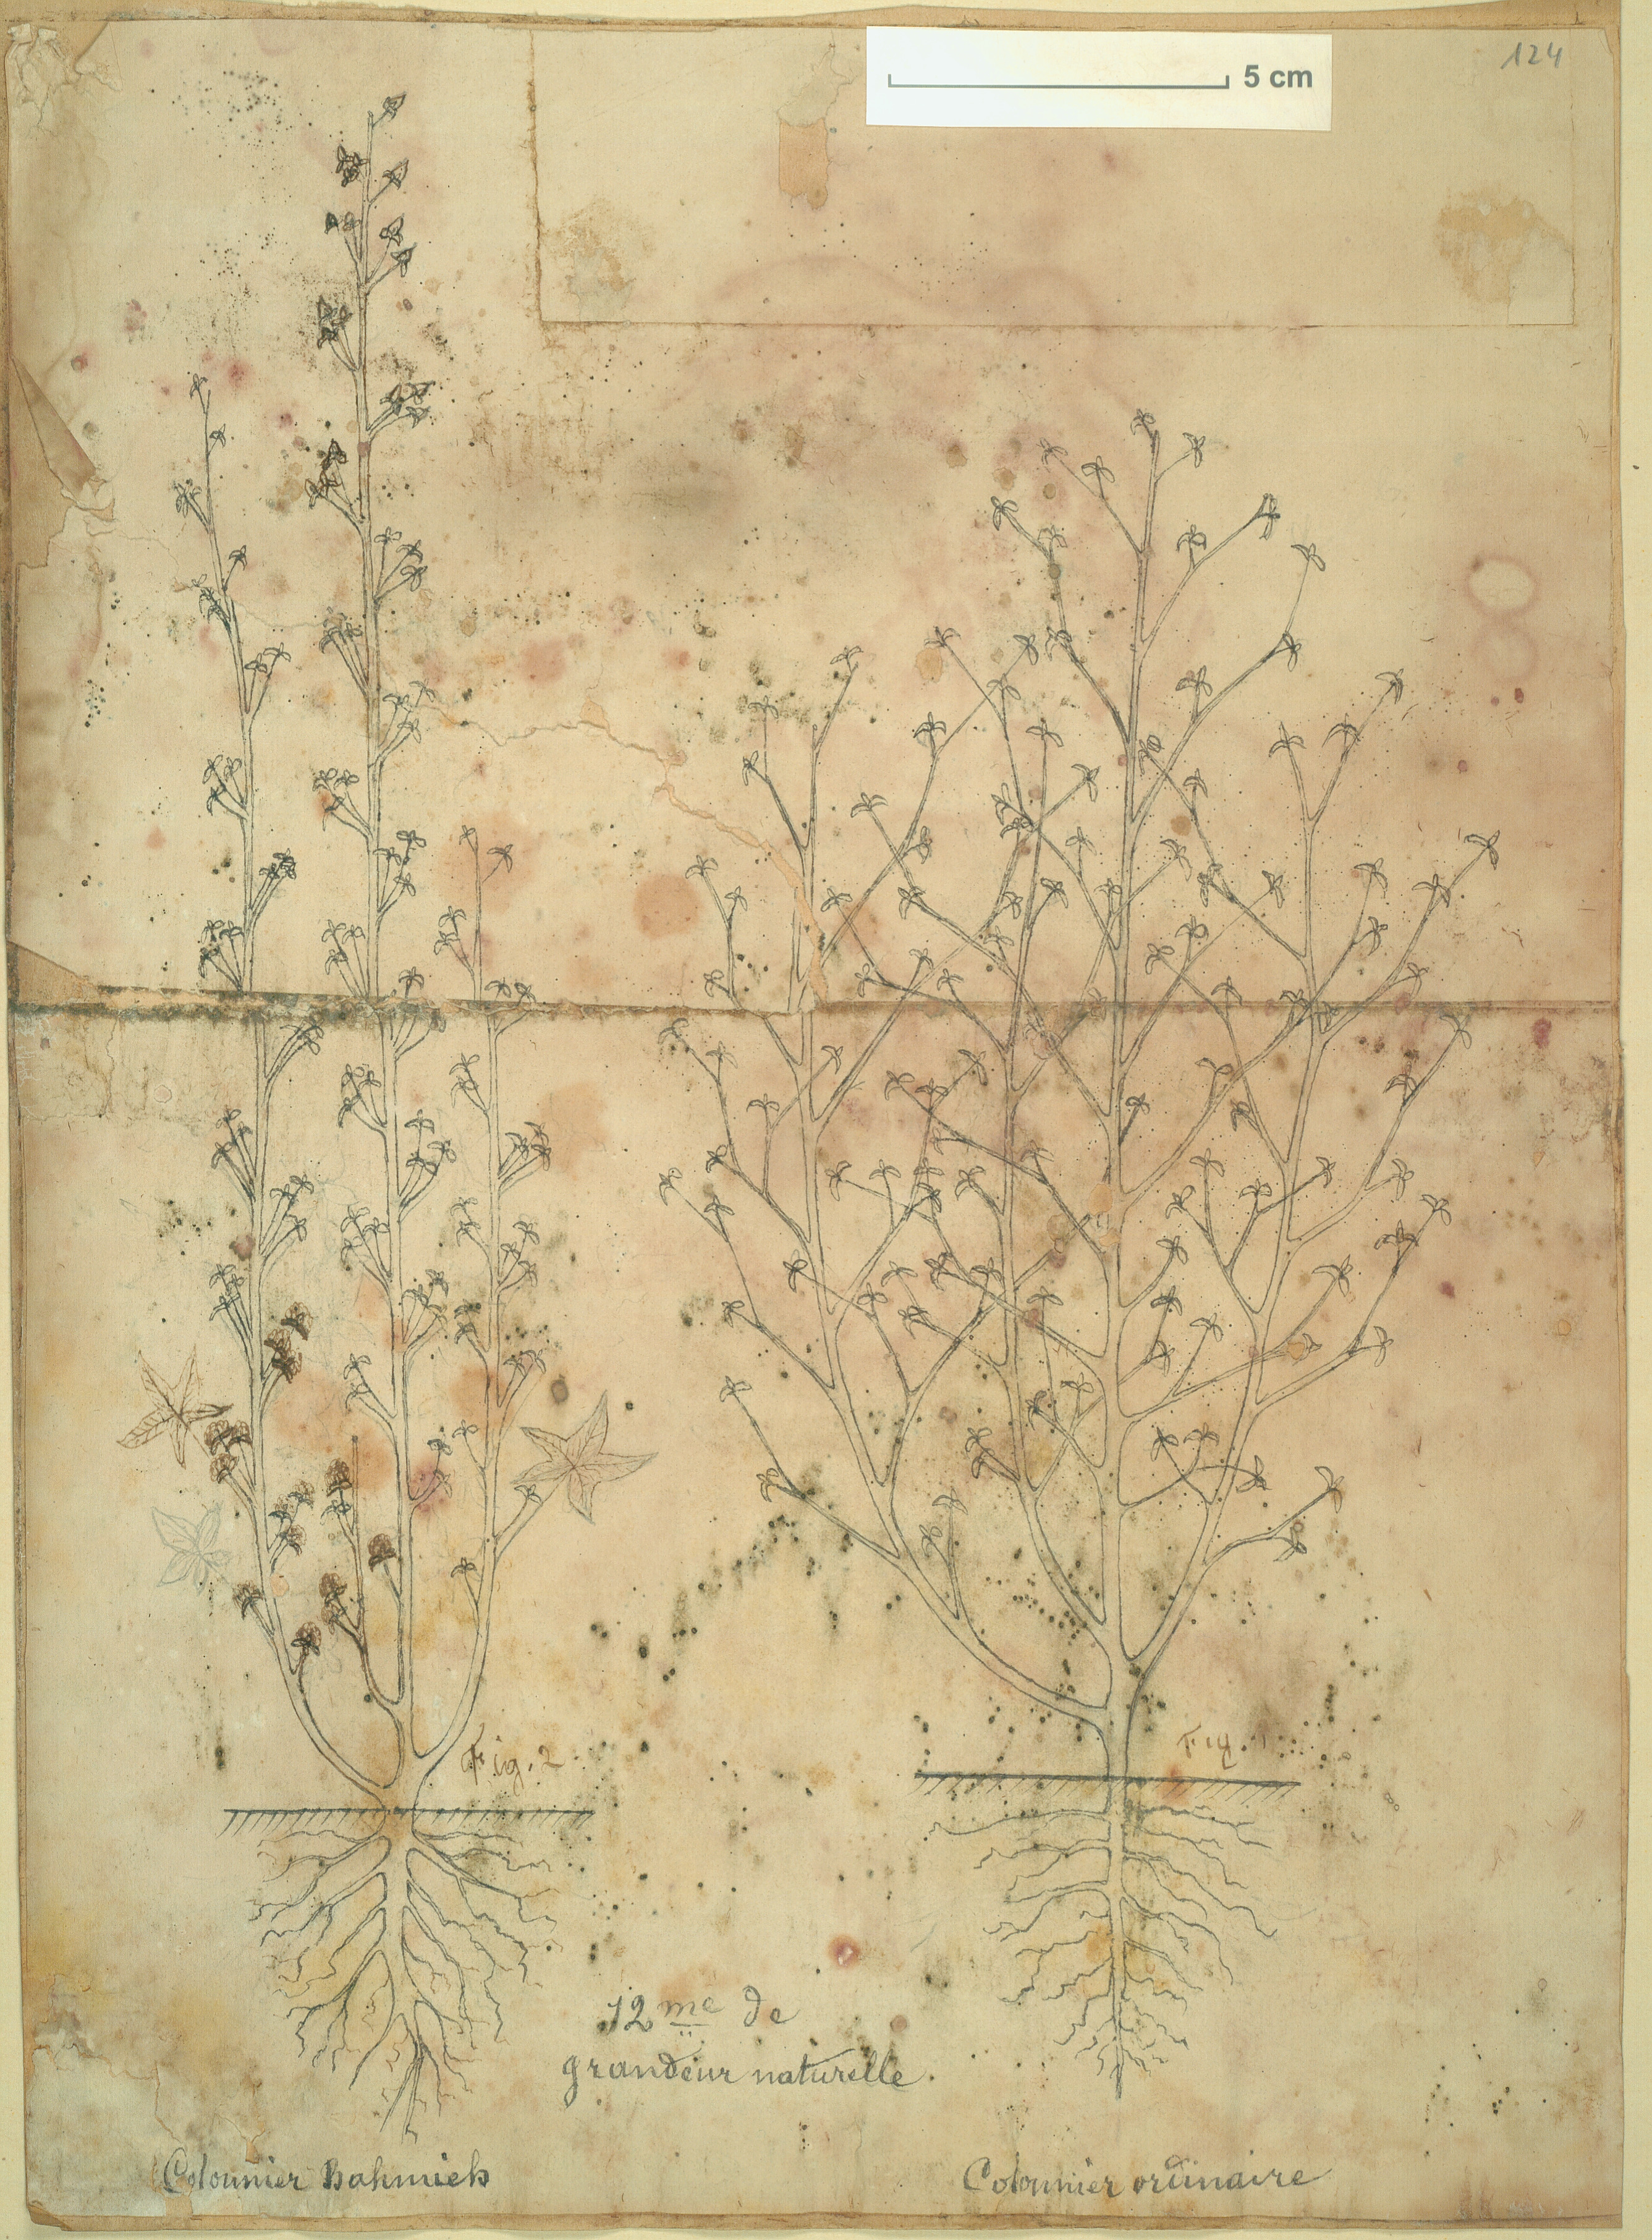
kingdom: Plantae
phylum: Tracheophyta
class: Magnoliopsida
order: Malvales
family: Malvaceae
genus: Gossypium
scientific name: Gossypium barbadense
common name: Creole cotton
